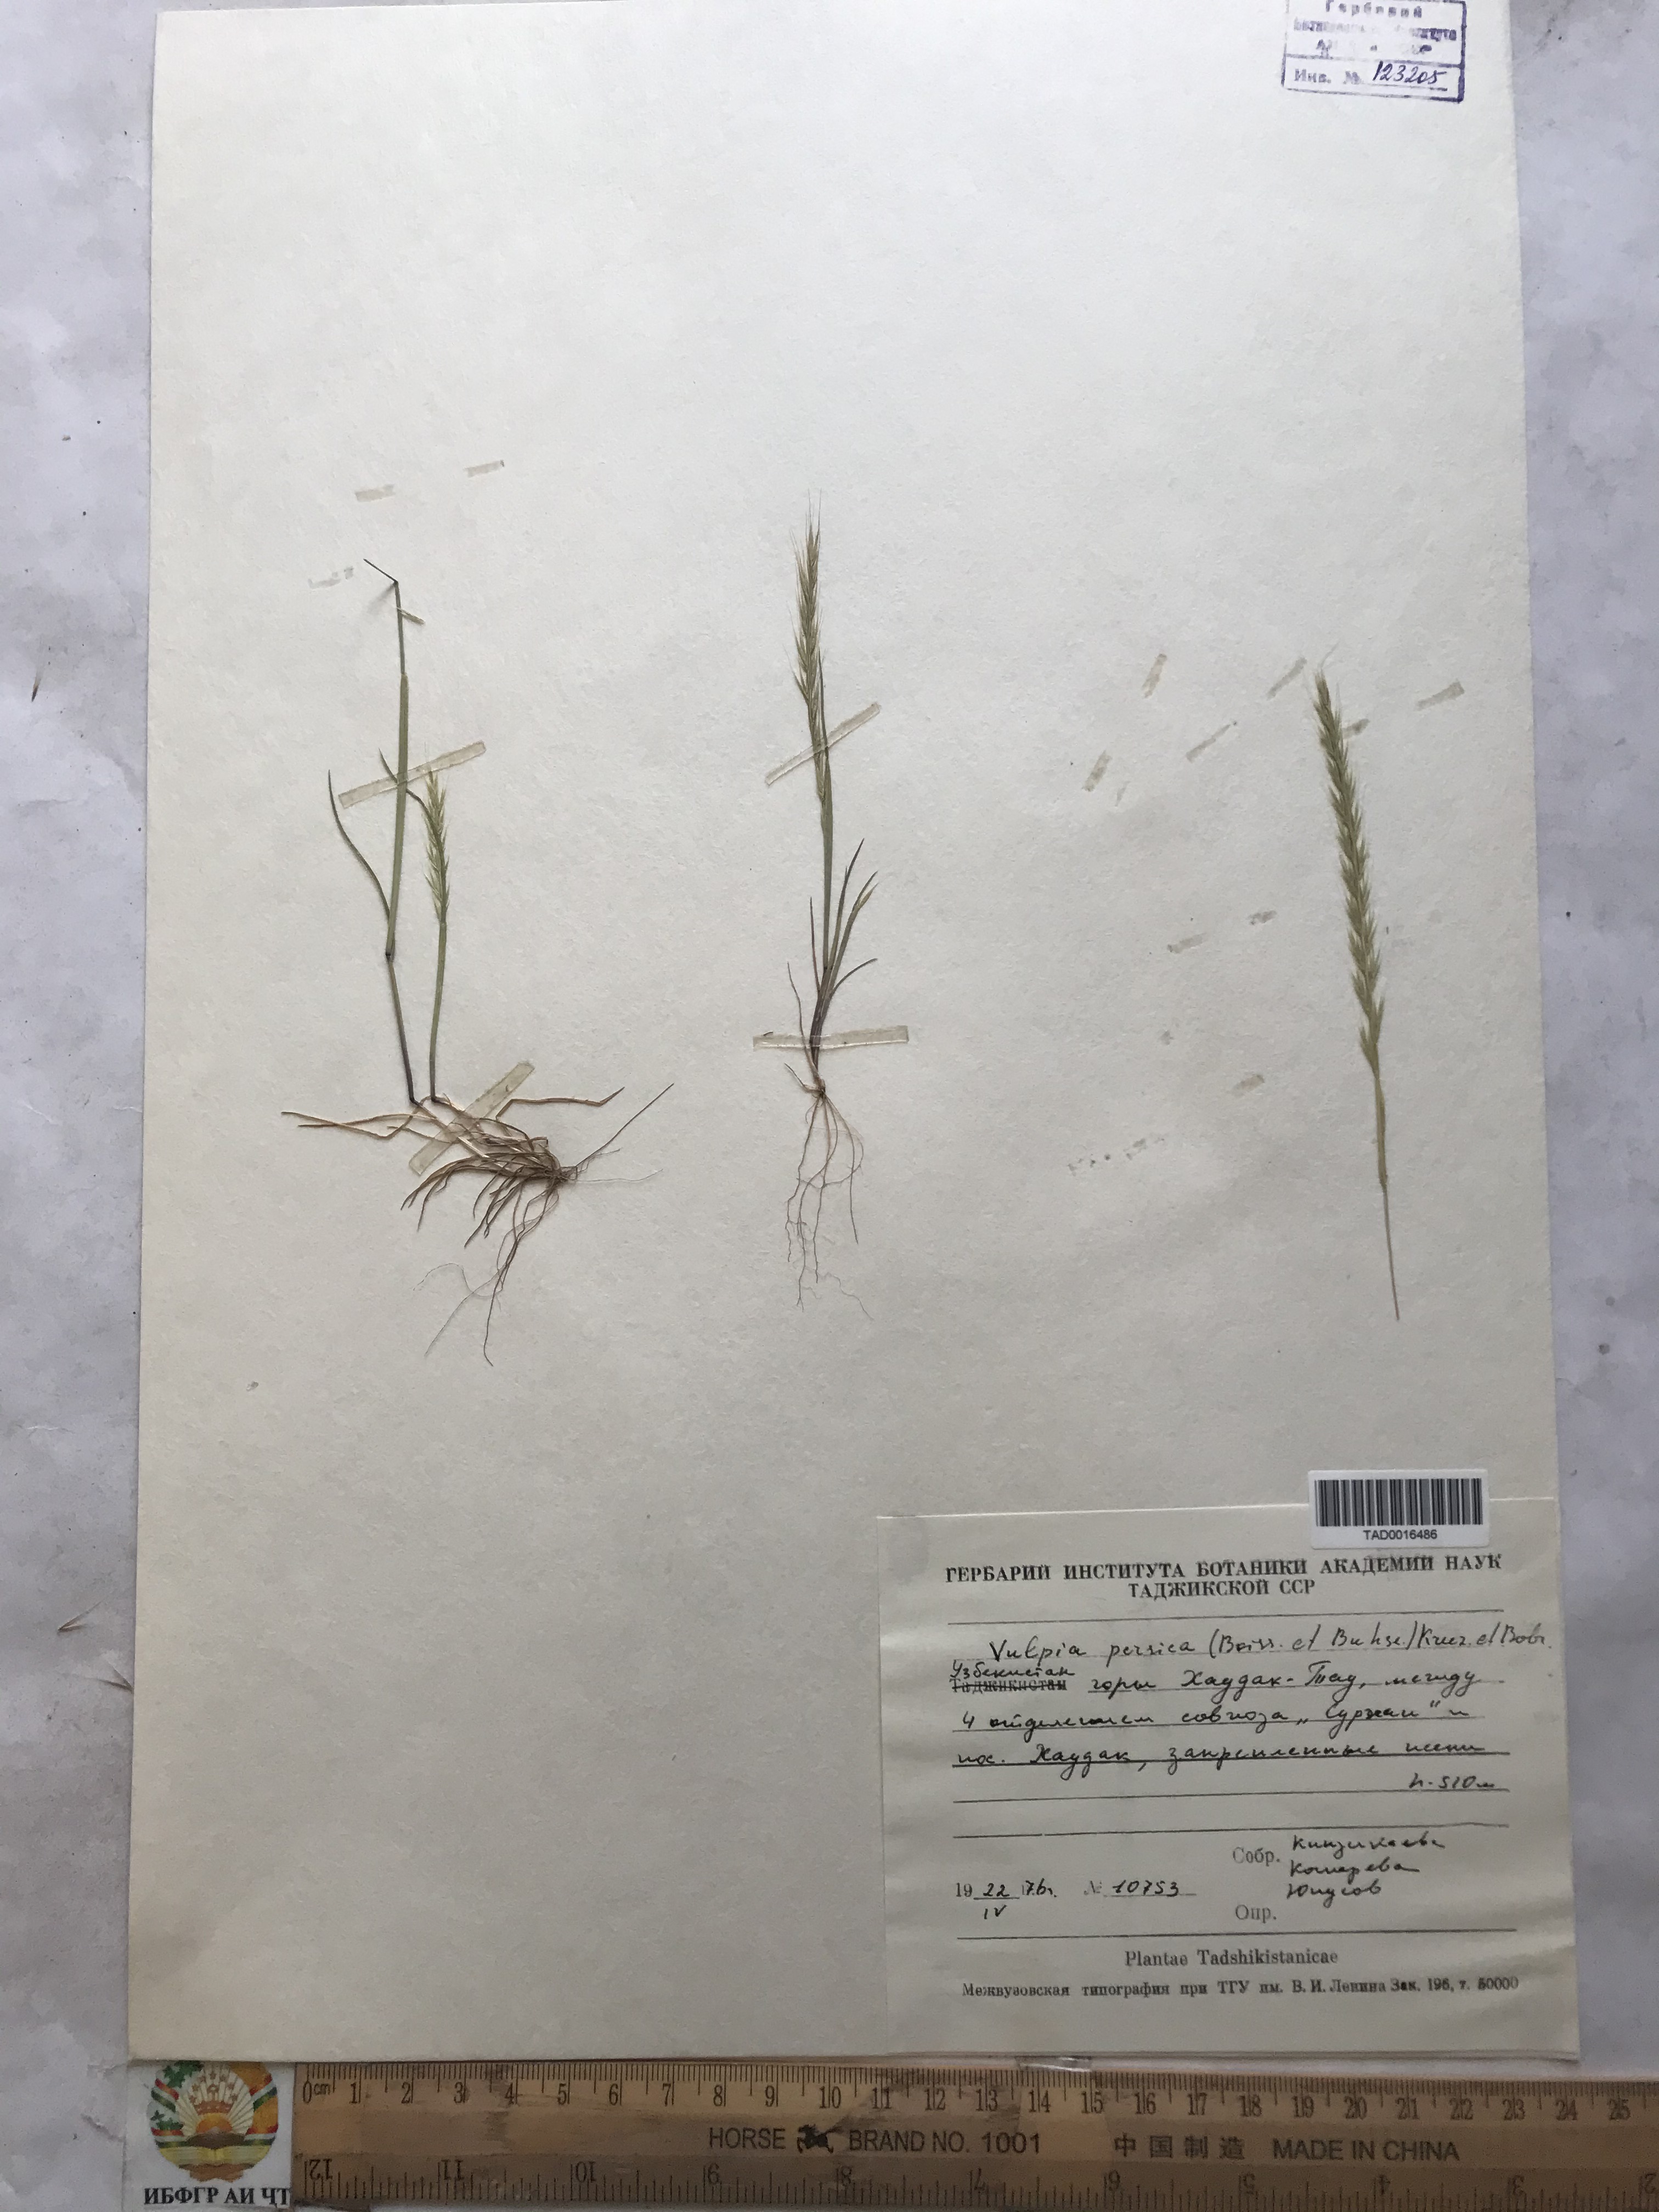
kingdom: Plantae
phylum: Tracheophyta
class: Liliopsida
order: Poales
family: Poaceae
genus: Festuca
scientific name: Festuca Vulpia persica
